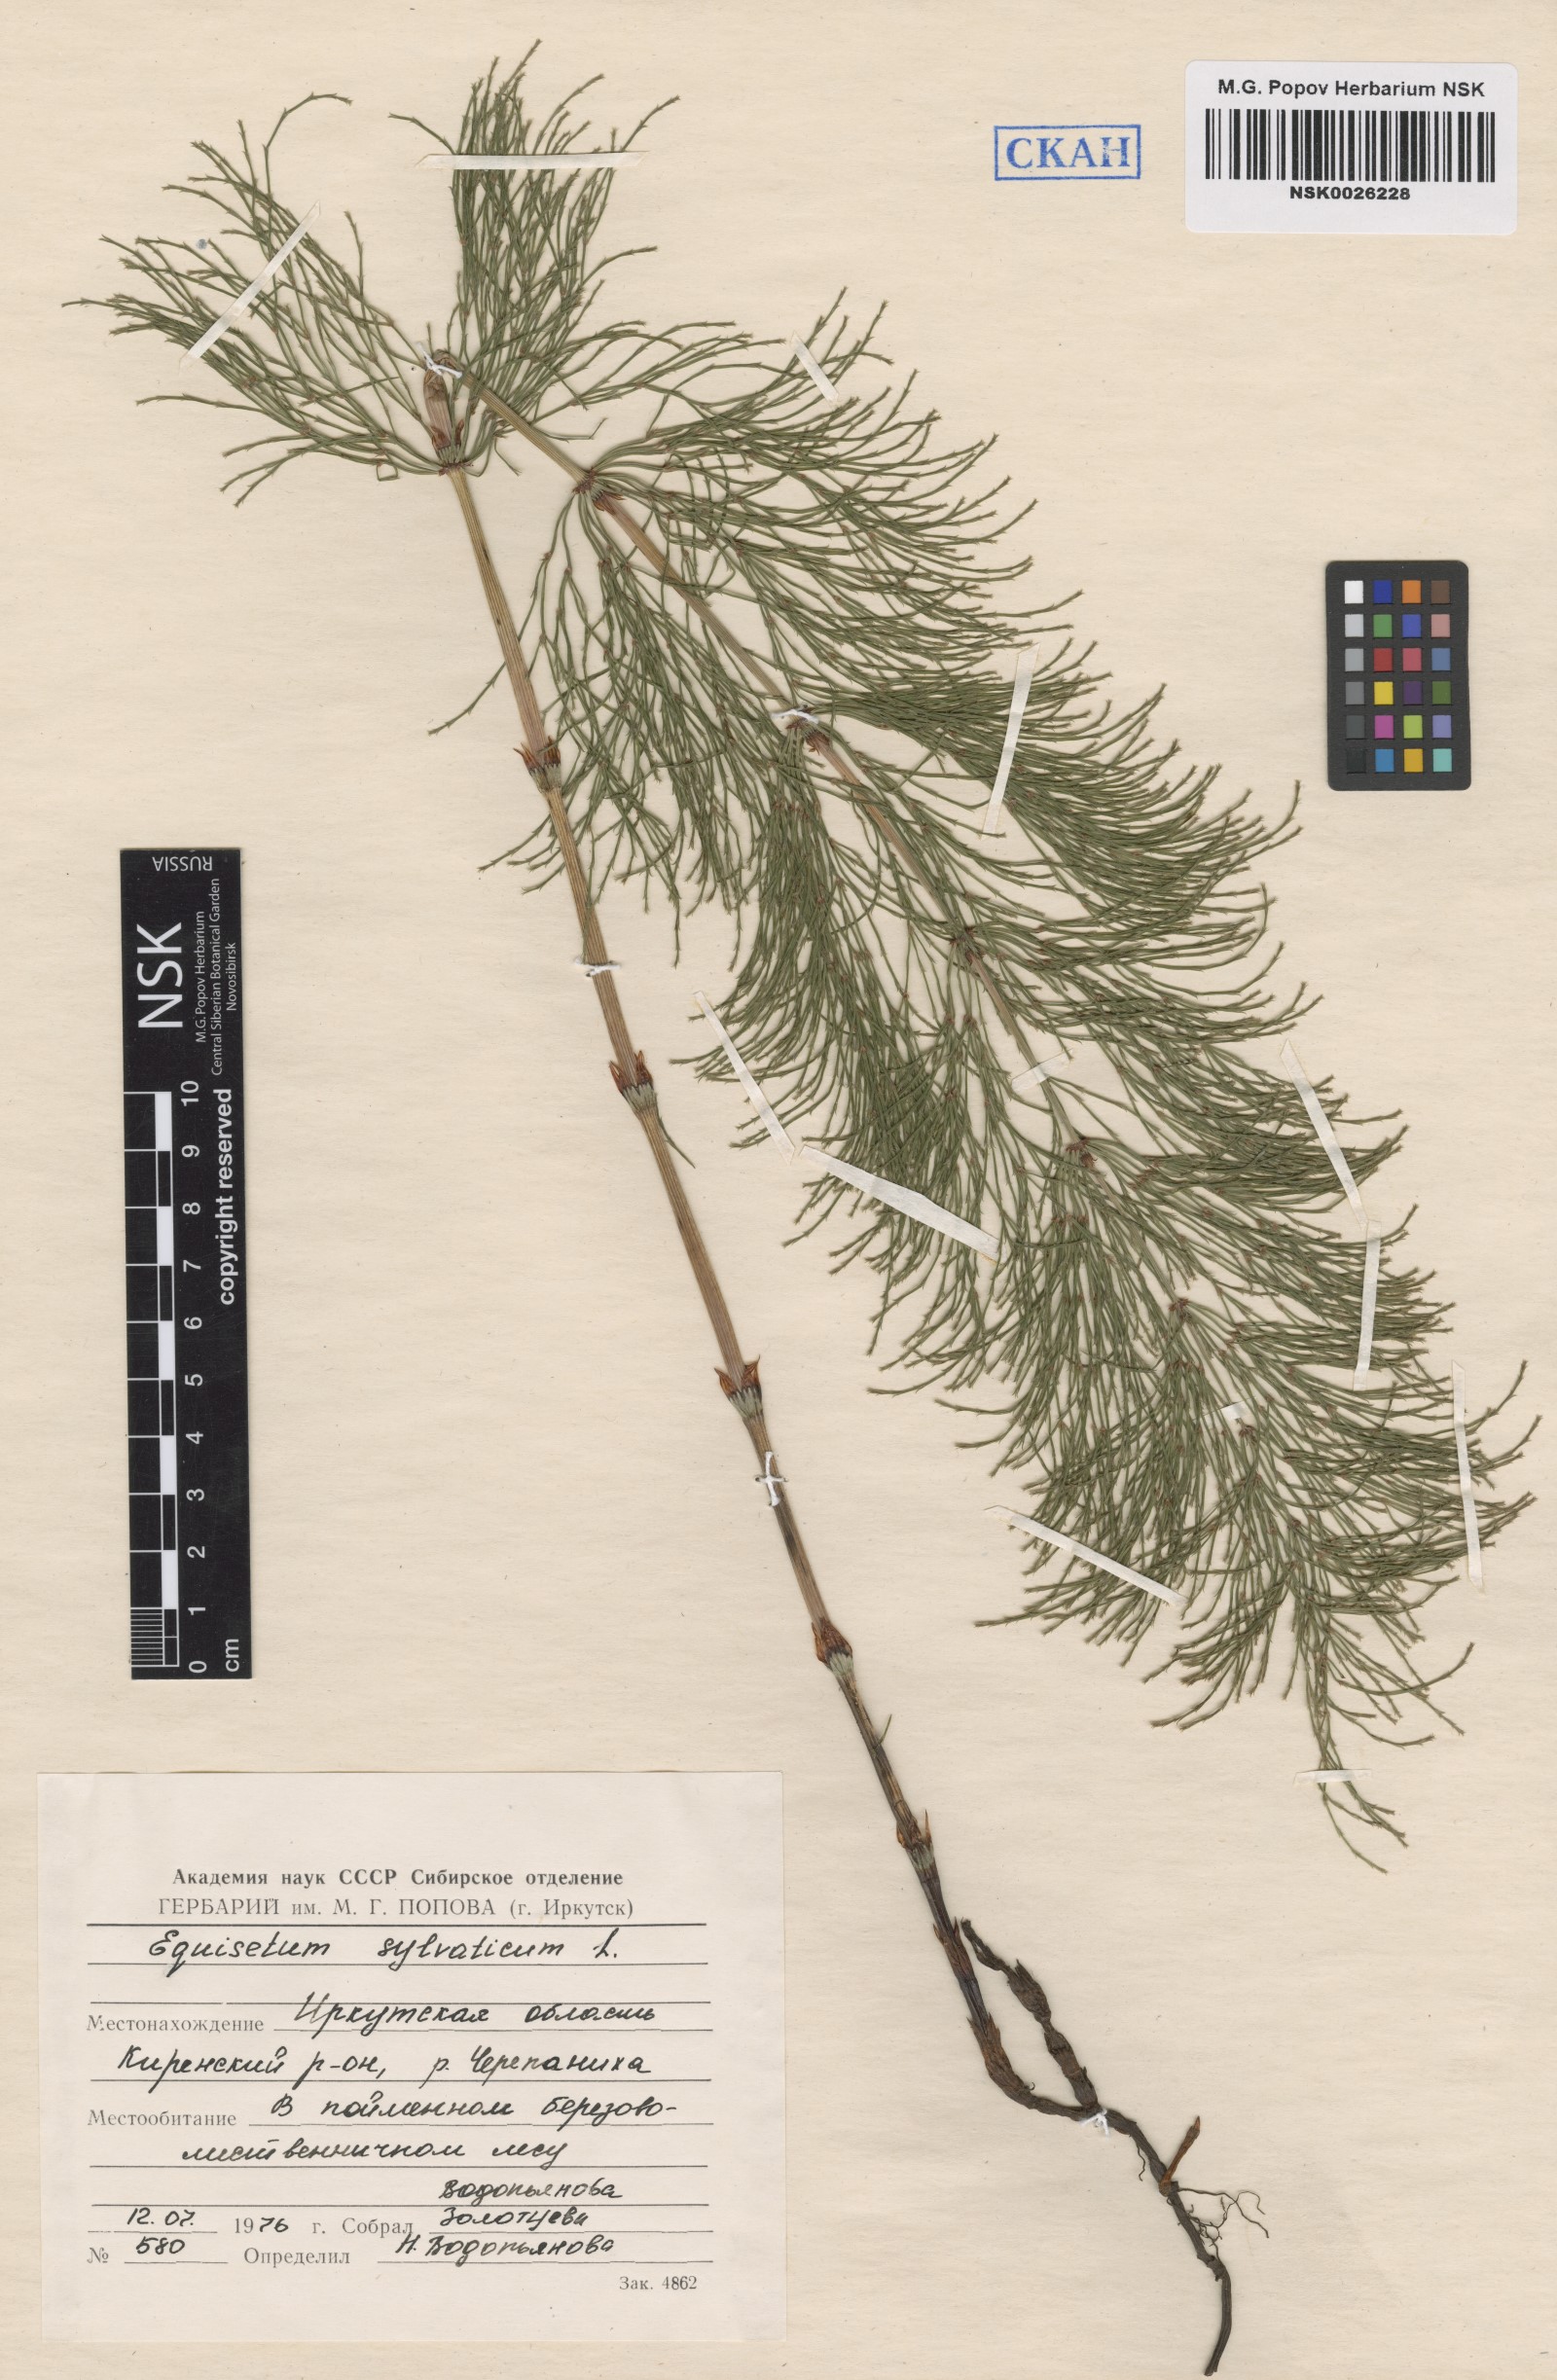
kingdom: Plantae
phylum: Tracheophyta
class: Polypodiopsida
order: Equisetales
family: Equisetaceae
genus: Equisetum
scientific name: Equisetum sylvaticum
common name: Wood horsetail
